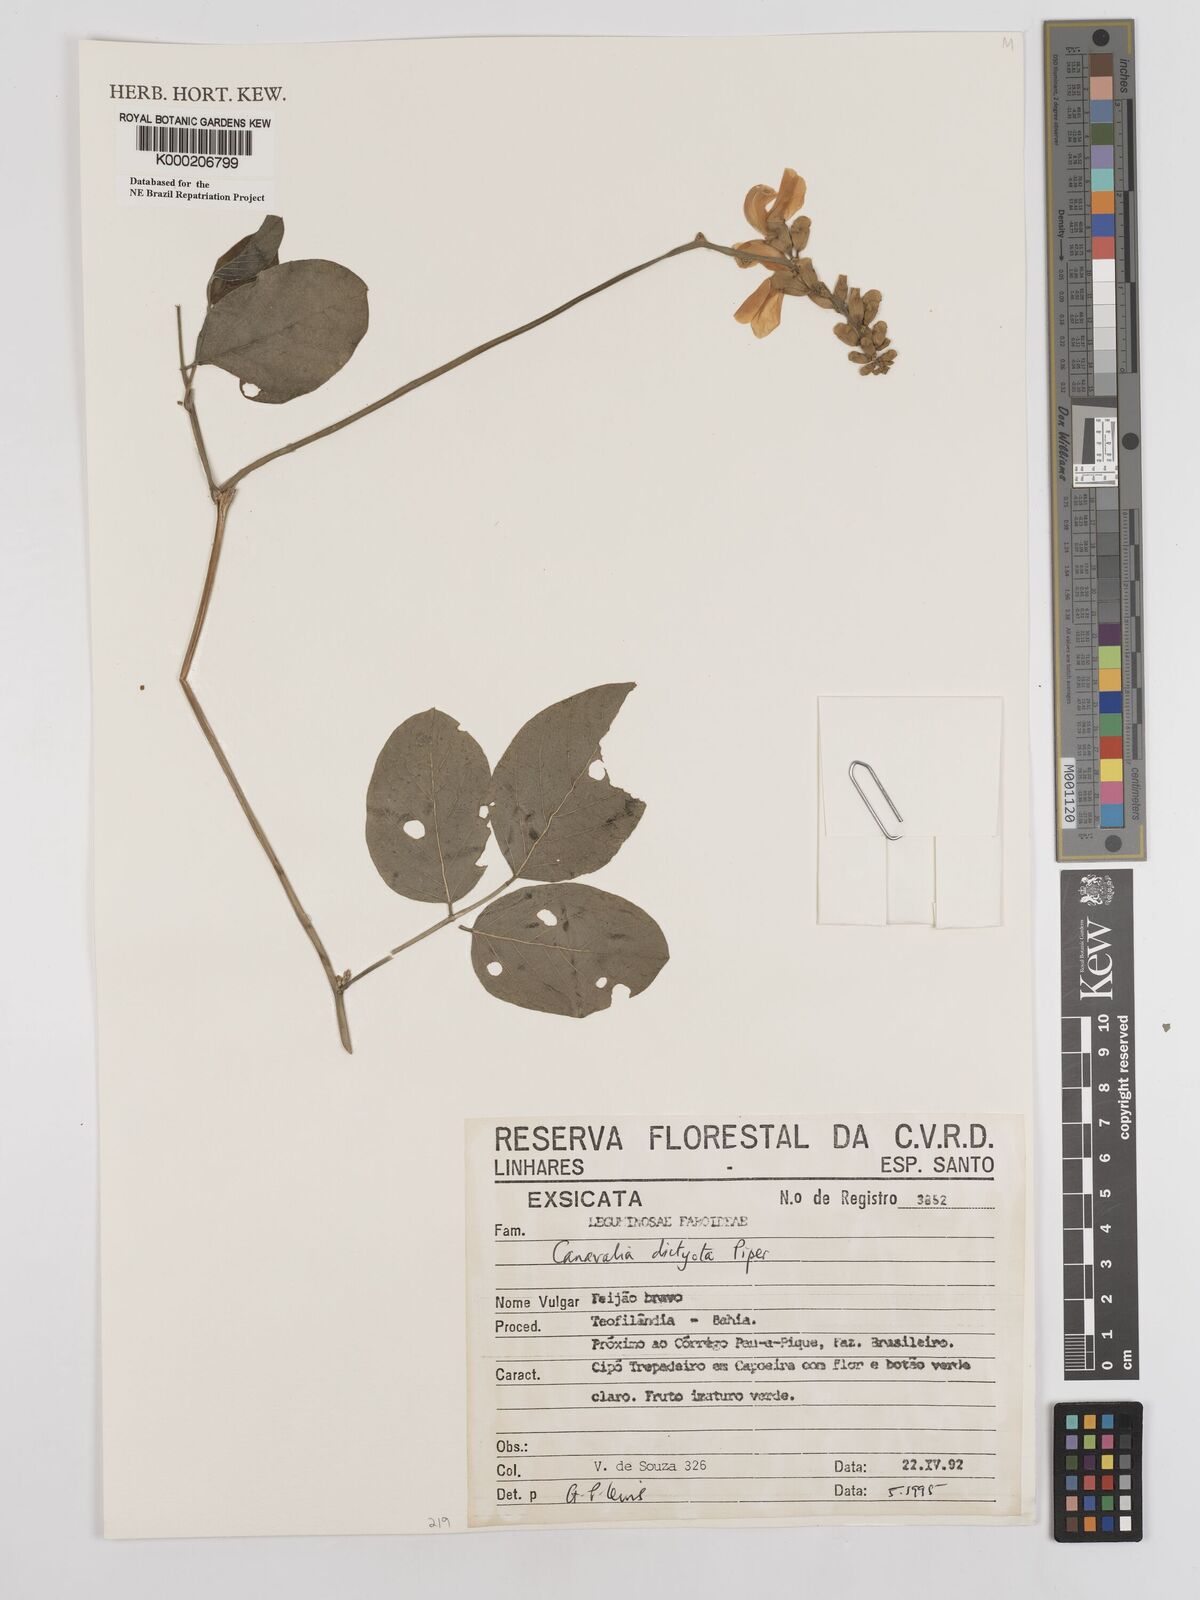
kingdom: Plantae
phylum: Tracheophyta
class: Magnoliopsida
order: Fabales
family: Fabaceae
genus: Canavalia
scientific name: Canavalia brasiliensis
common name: Barbicou-bean
